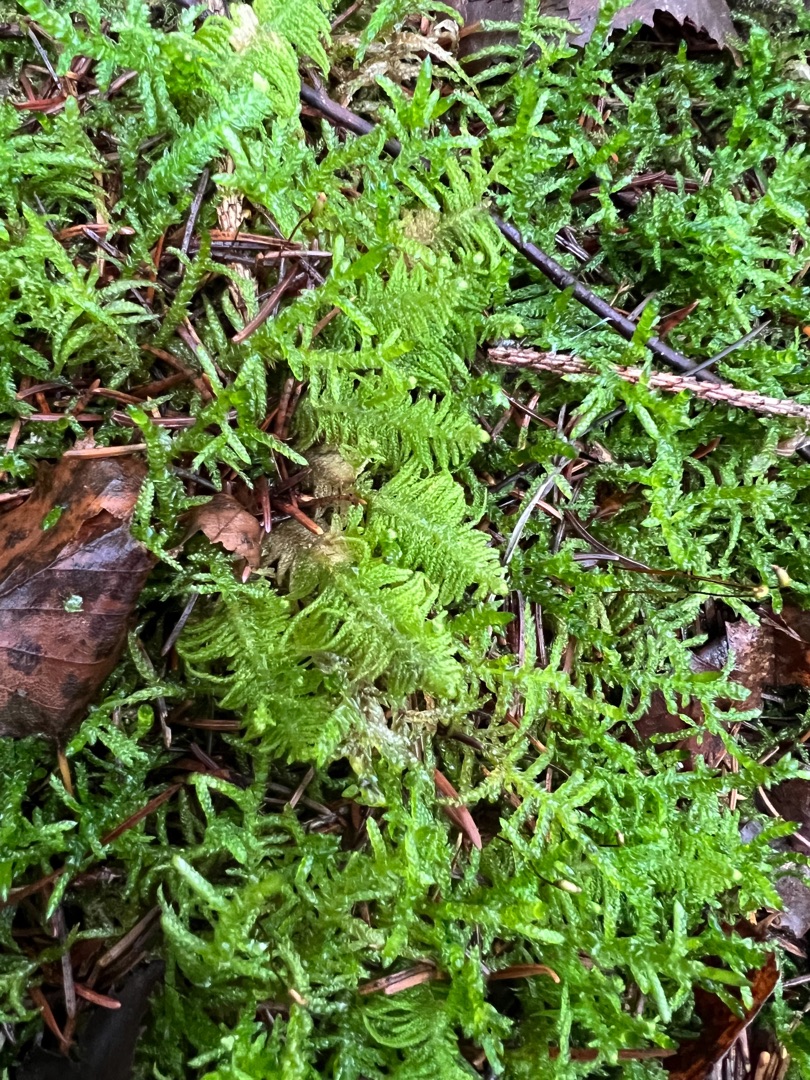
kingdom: Plantae
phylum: Bryophyta
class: Bryopsida
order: Hypnales
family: Pylaisiaceae
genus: Ptilium
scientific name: Ptilium crista-castrensis
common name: Fjer-kammos
